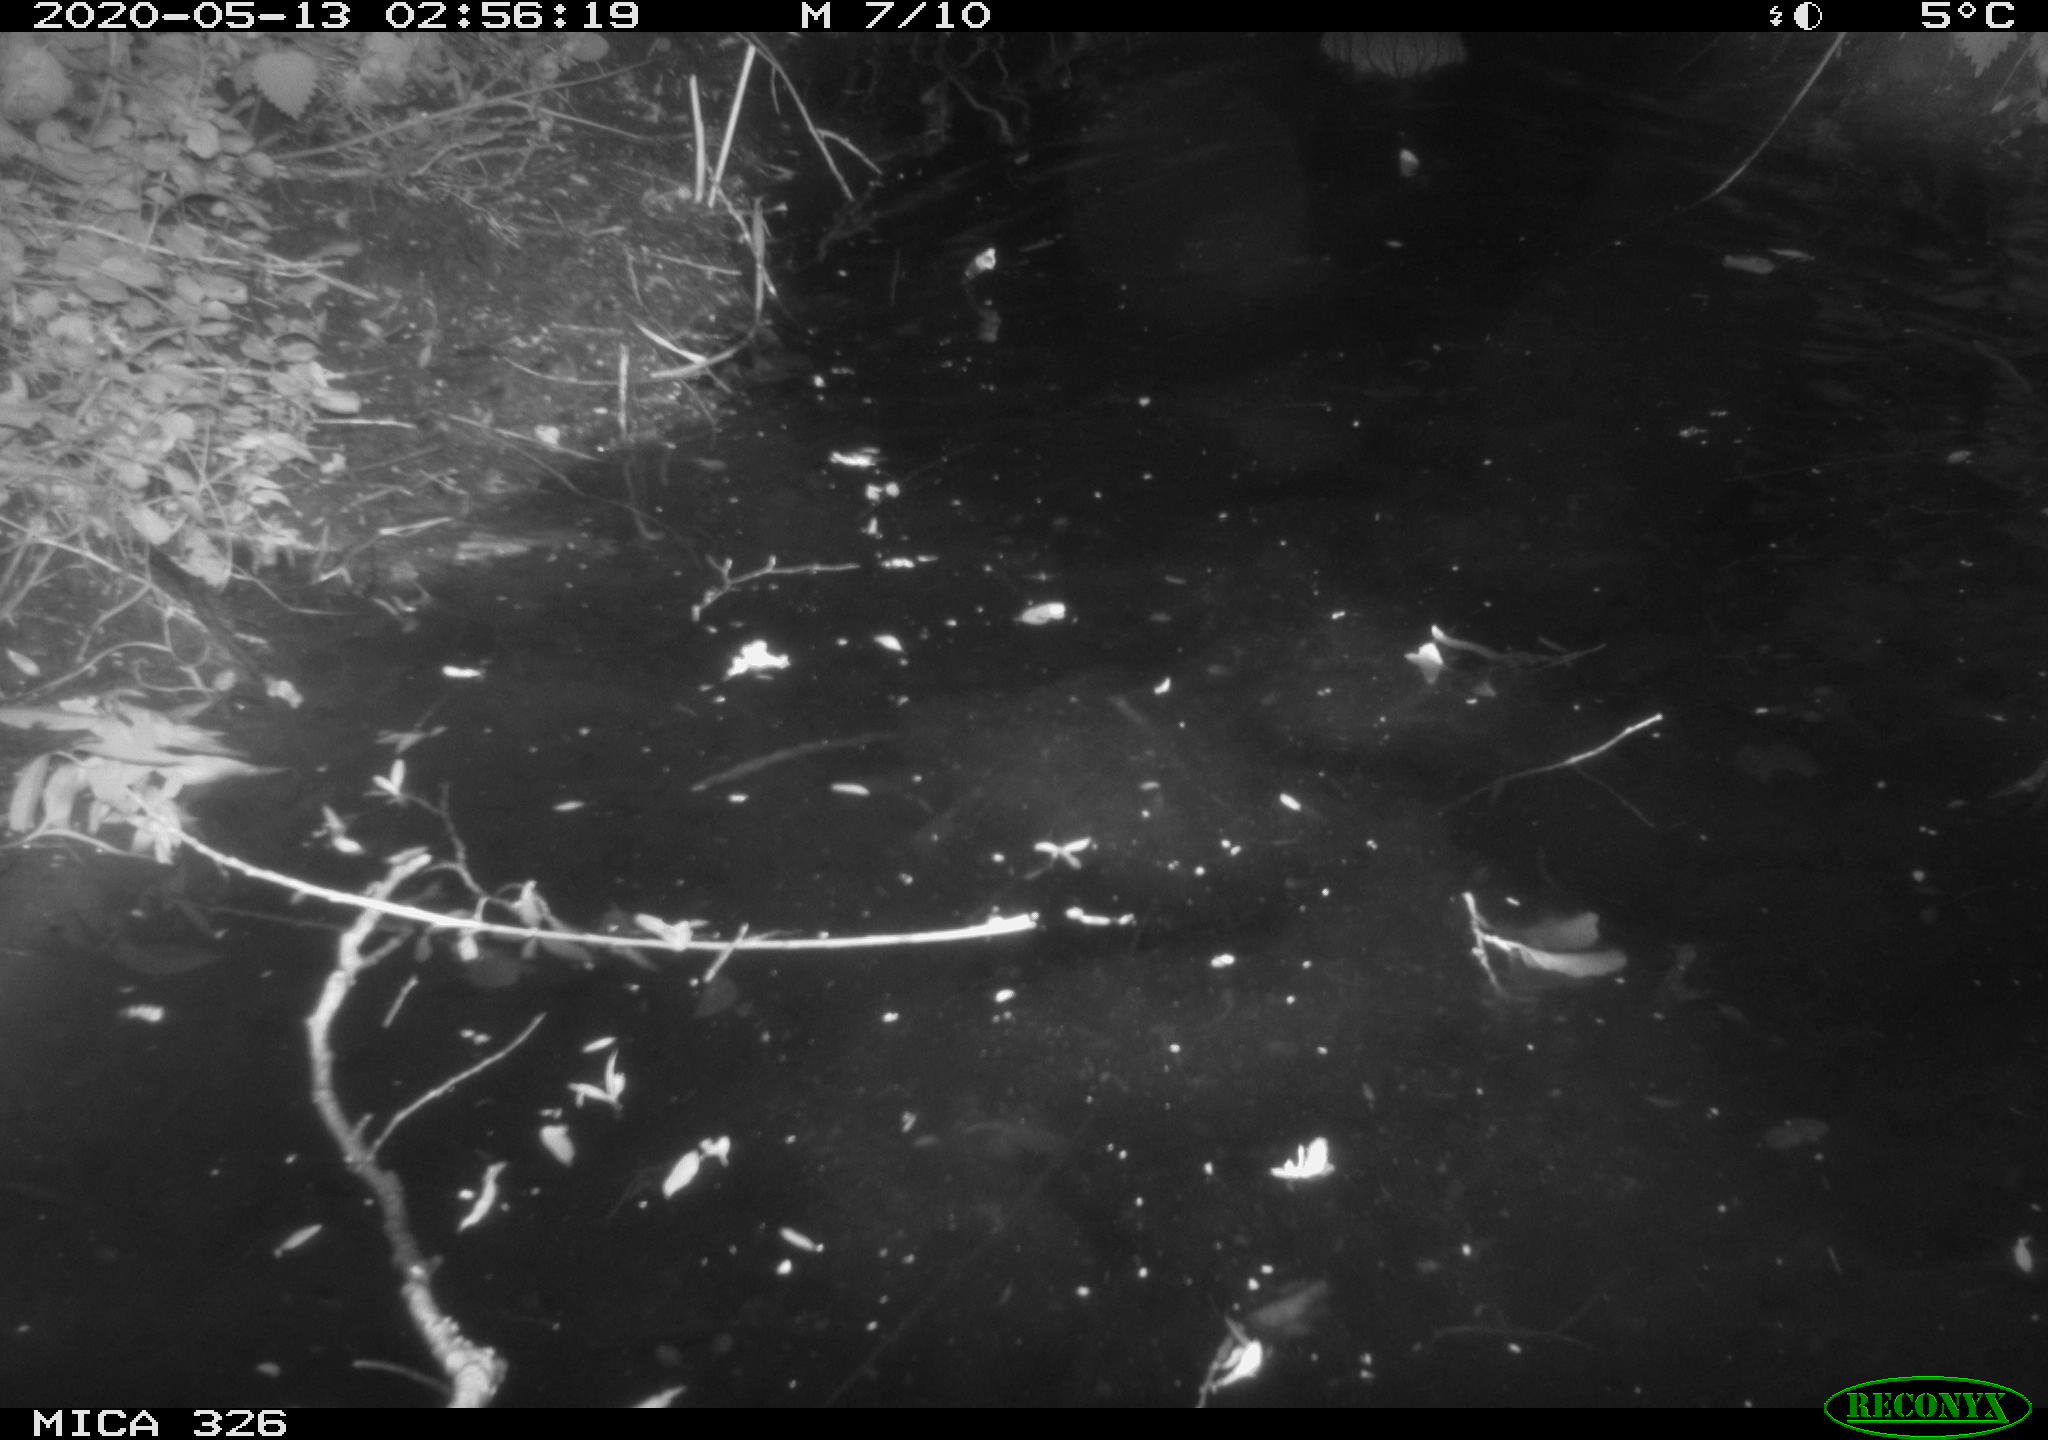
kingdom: Animalia
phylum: Chordata
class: Mammalia
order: Rodentia
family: Myocastoridae
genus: Myocastor
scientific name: Myocastor coypus
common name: Coypu
